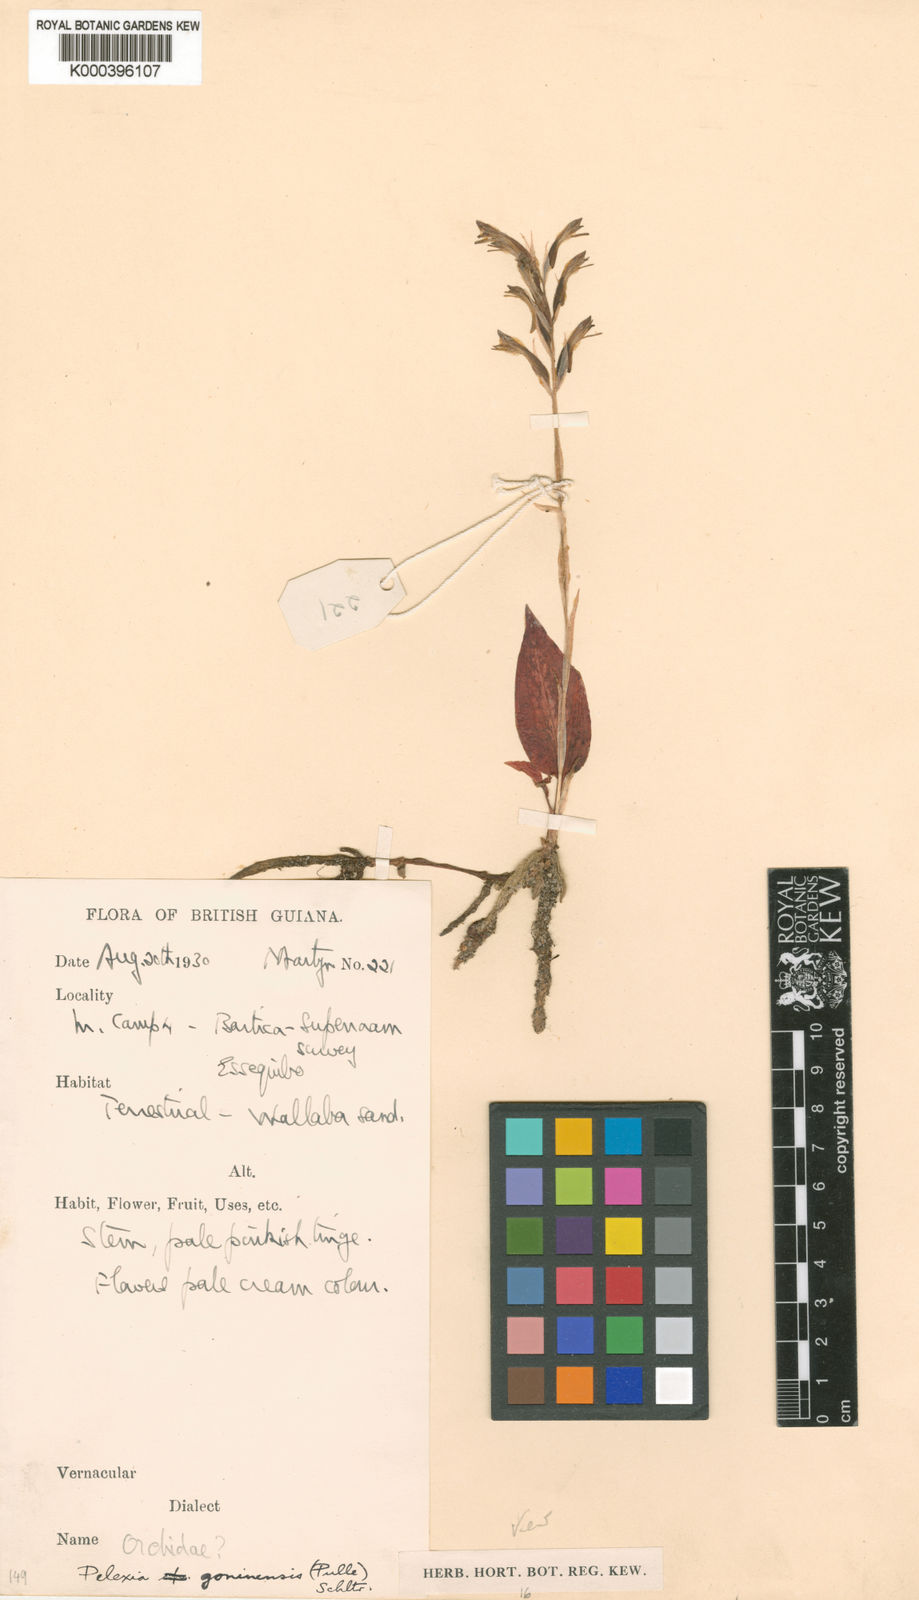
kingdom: Plantae
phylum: Tracheophyta
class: Liliopsida
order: Asparagales
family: Orchidaceae
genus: Pelexia
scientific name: Pelexia goninensis
